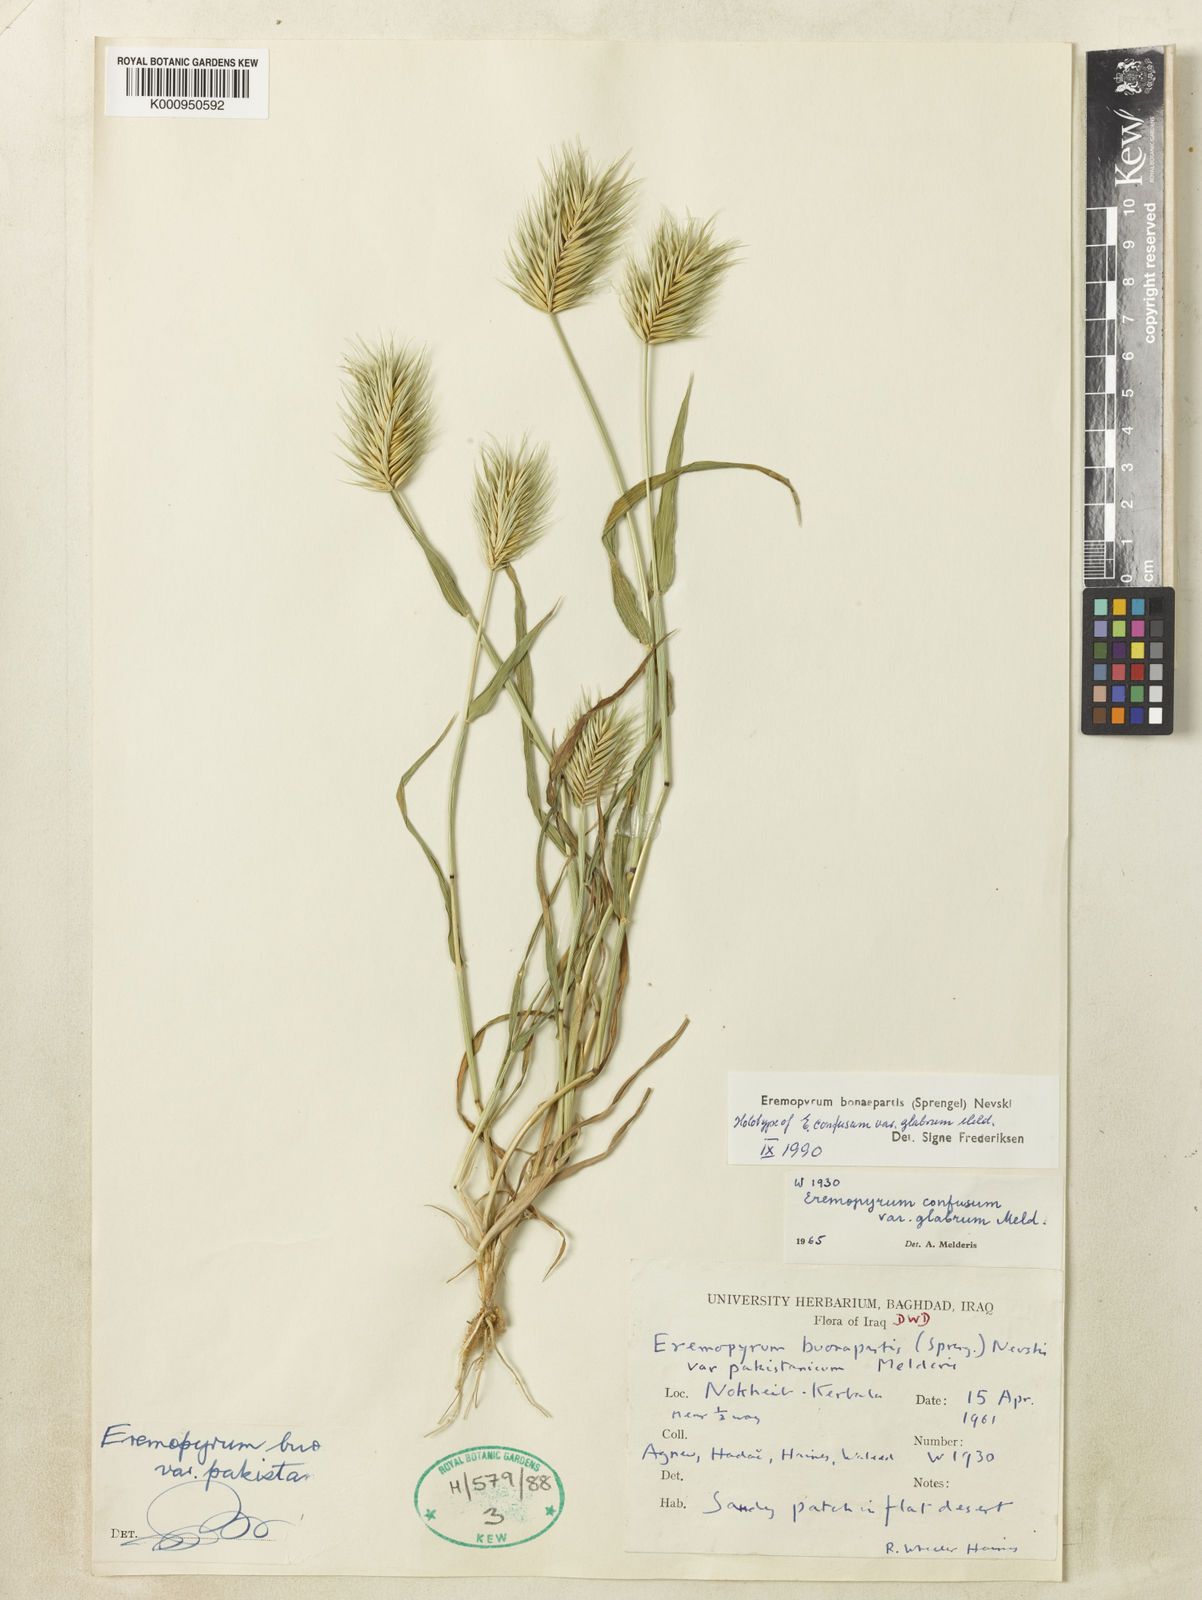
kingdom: Plantae
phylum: Tracheophyta
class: Liliopsida
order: Poales
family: Poaceae
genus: Eremopyrum
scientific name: Eremopyrum bonaepartis
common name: Tapertip false wheatgrass
